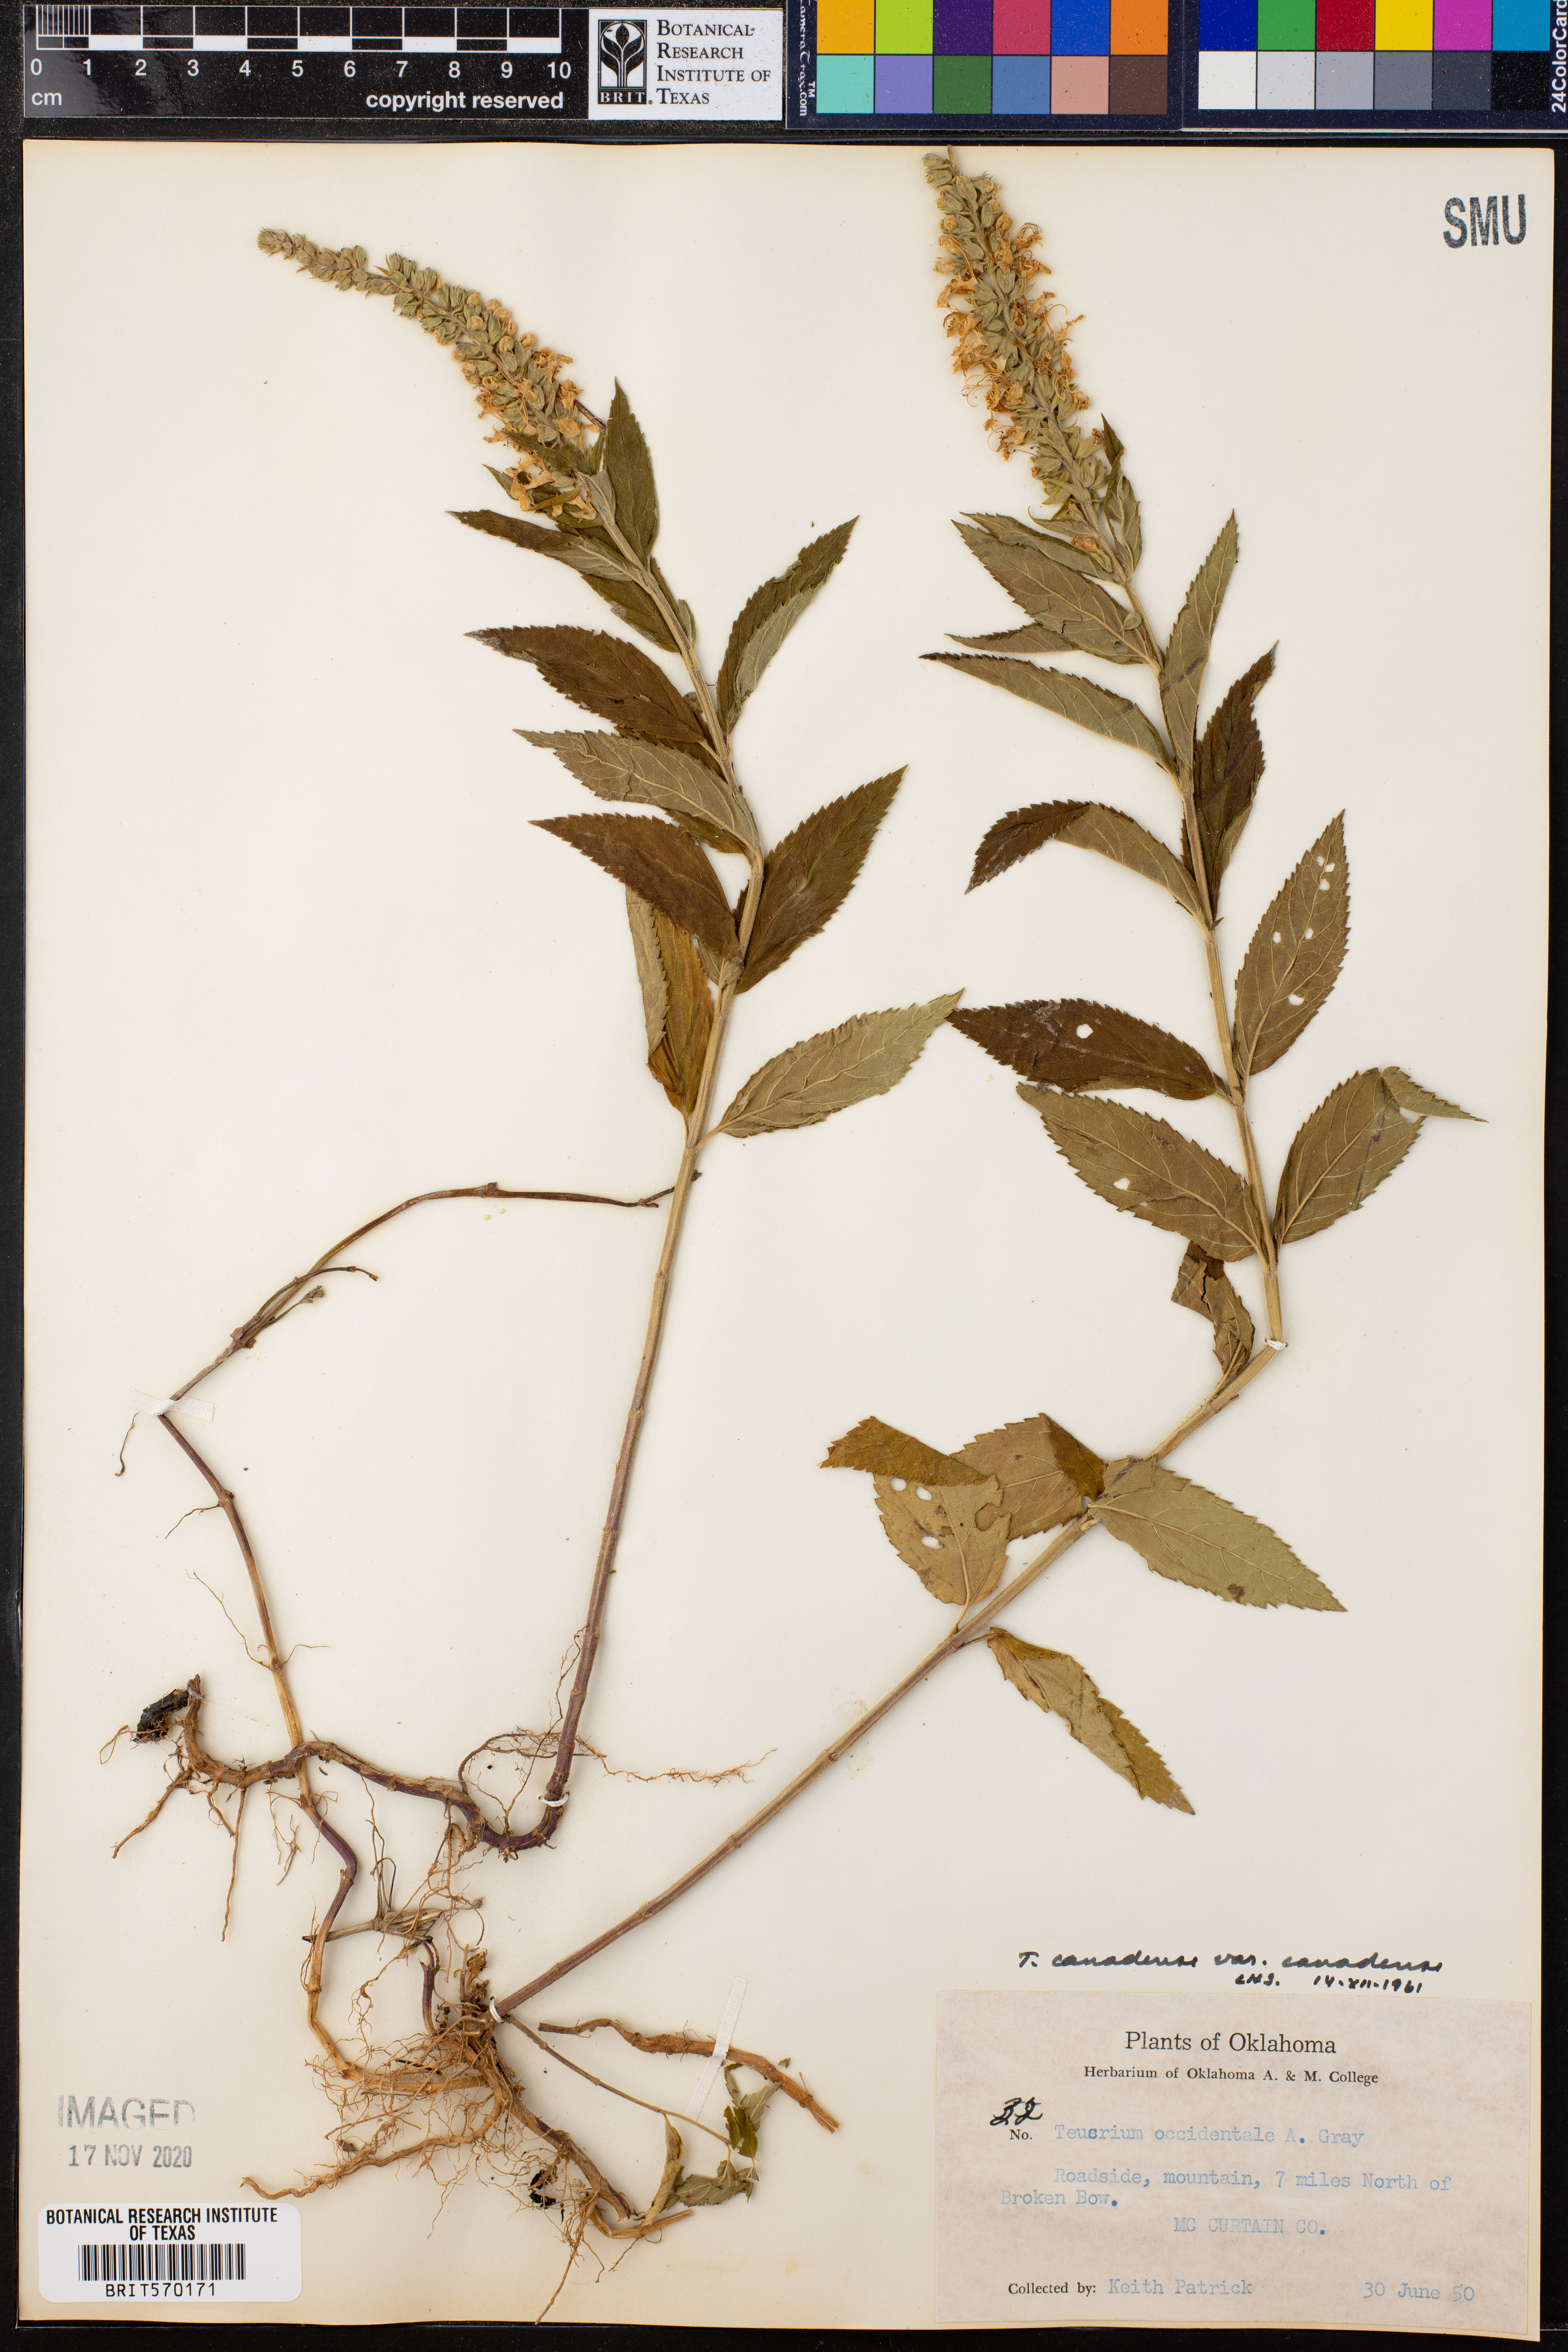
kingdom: Plantae
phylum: Tracheophyta
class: Magnoliopsida
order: Lamiales
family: Lamiaceae
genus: Teucrium
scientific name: Teucrium canadense
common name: American germander
